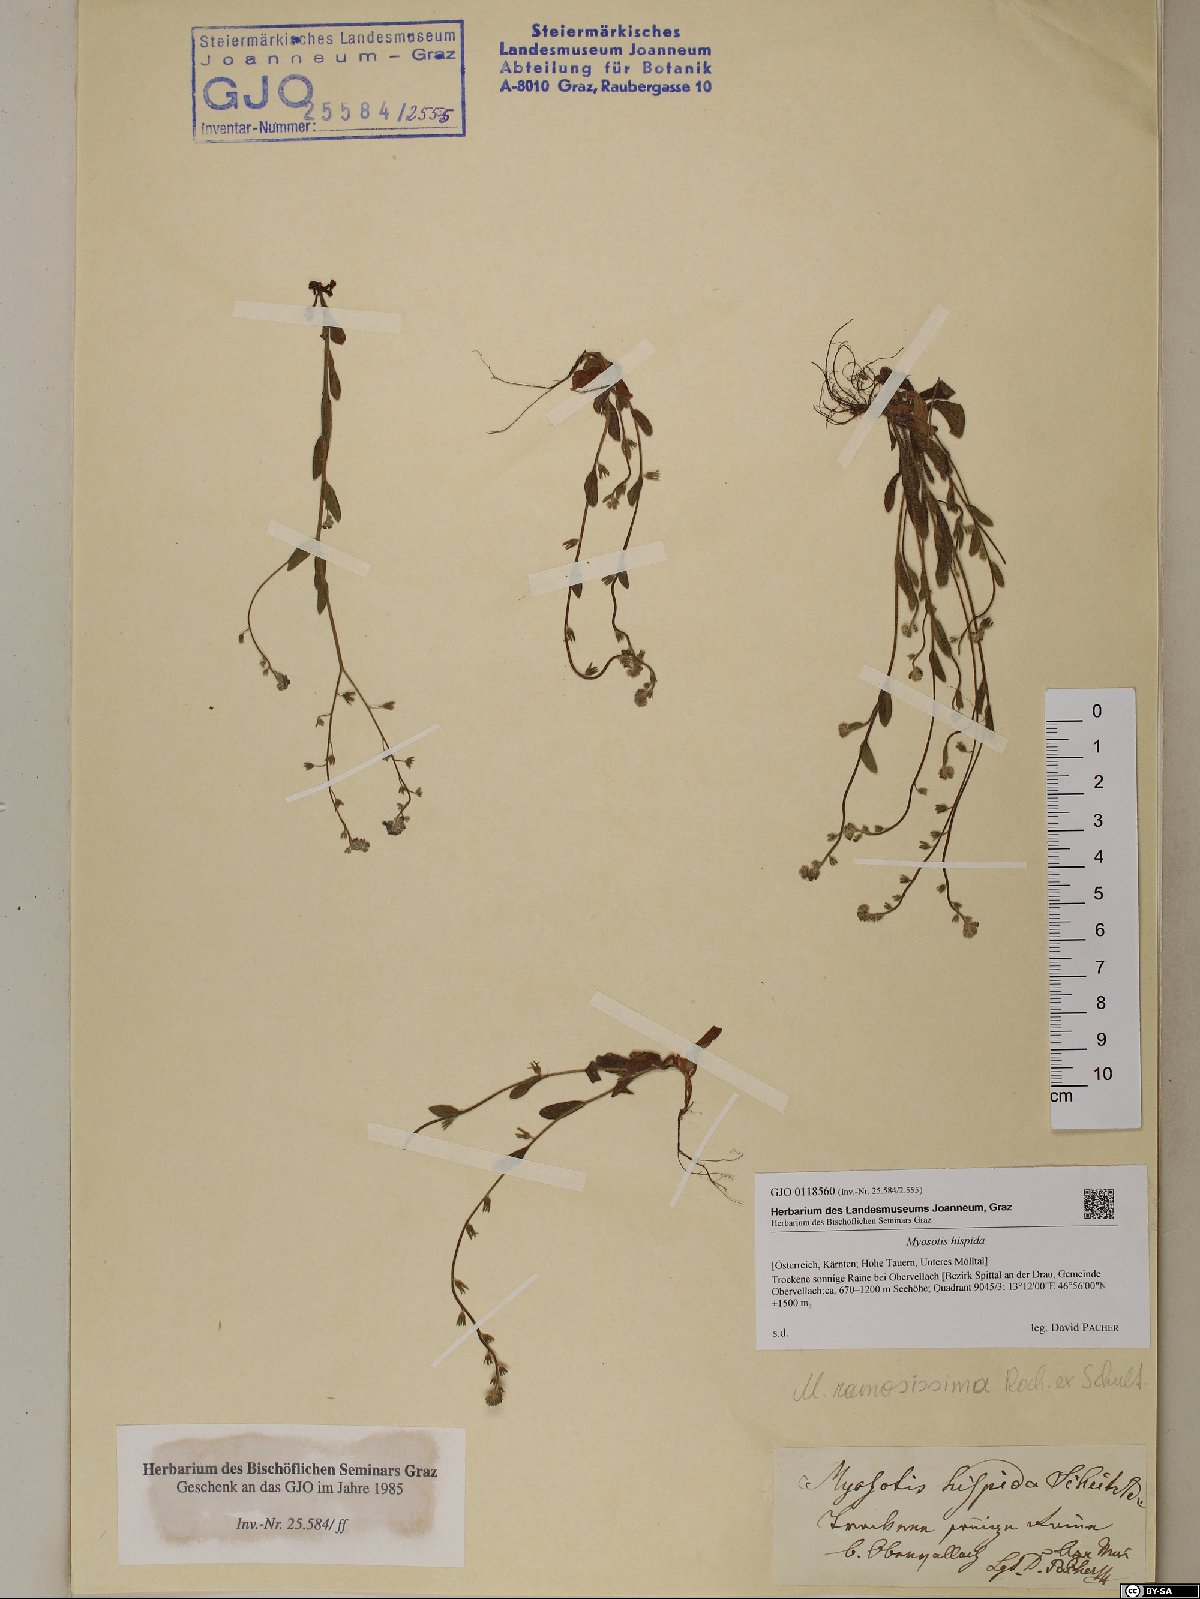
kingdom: Plantae
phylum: Tracheophyta
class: Magnoliopsida
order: Boraginales
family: Boraginaceae
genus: Myosotis
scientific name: Myosotis ramosissima
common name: Early forget-me-not
